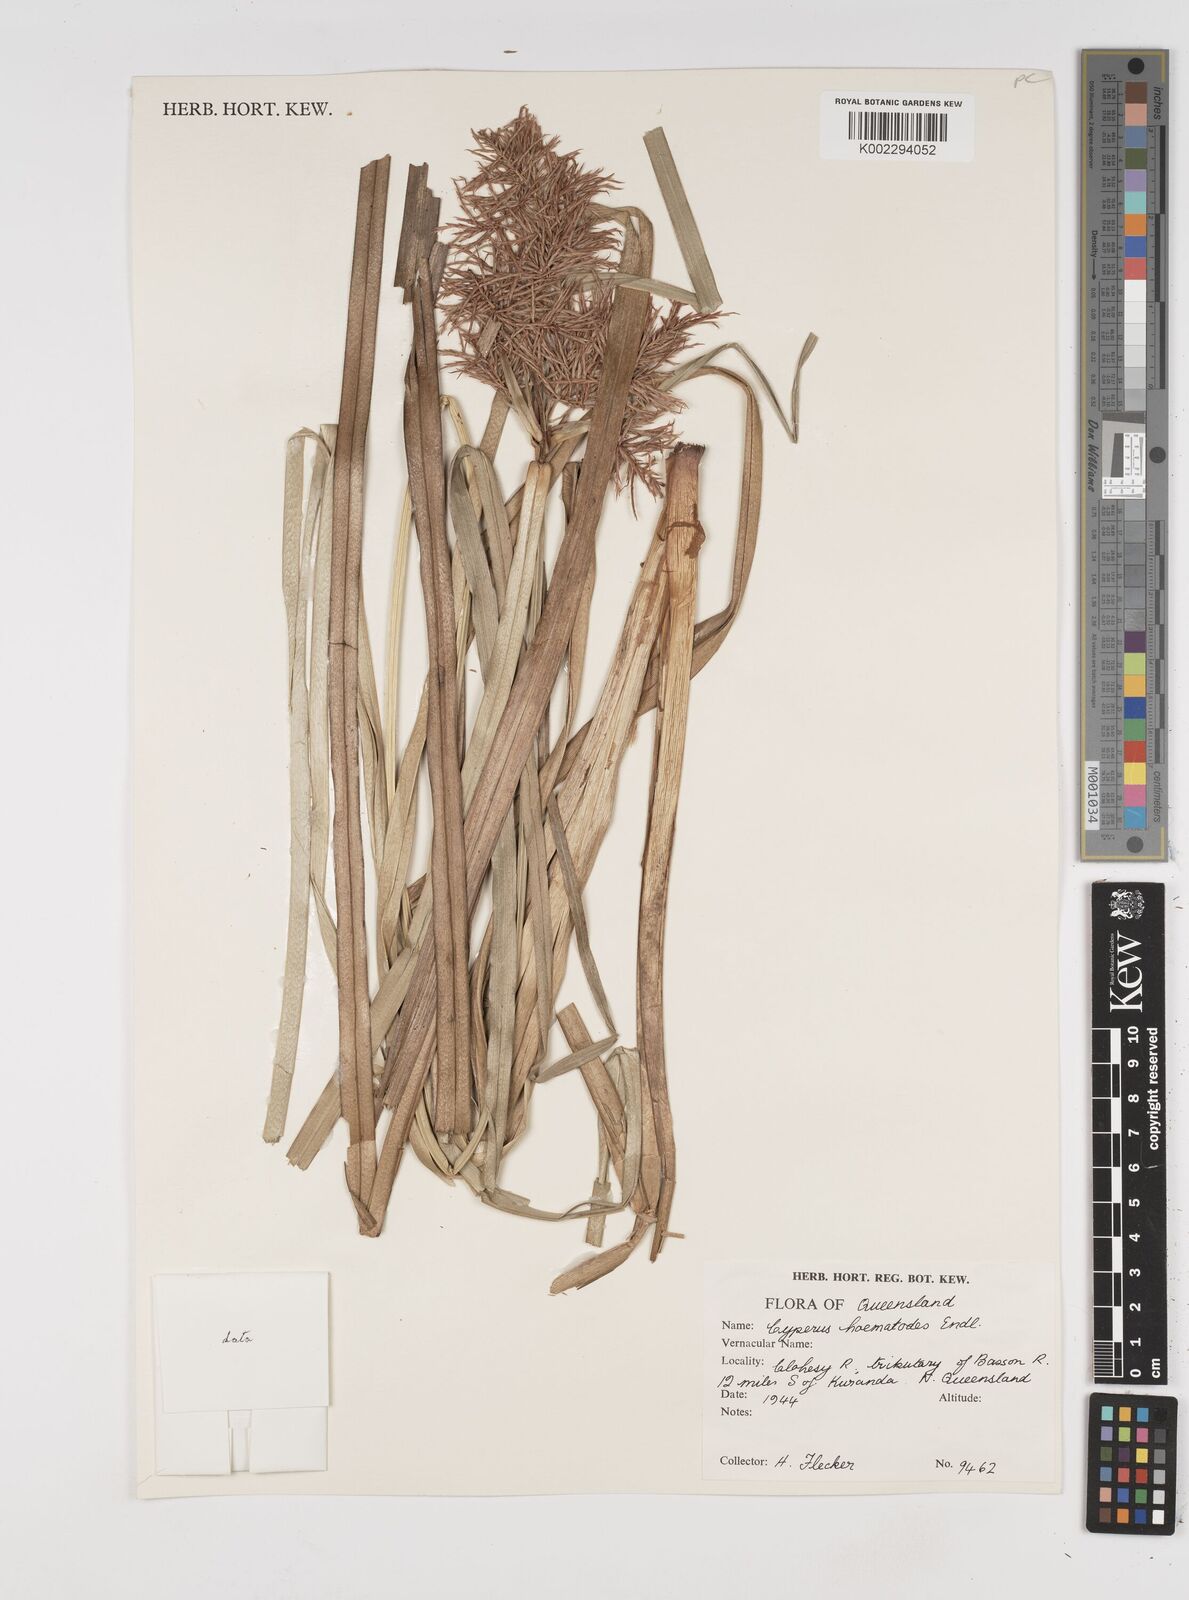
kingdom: Plantae
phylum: Tracheophyta
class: Liliopsida
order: Poales
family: Cyperaceae
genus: Cyperus
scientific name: Cyperus lucidus
